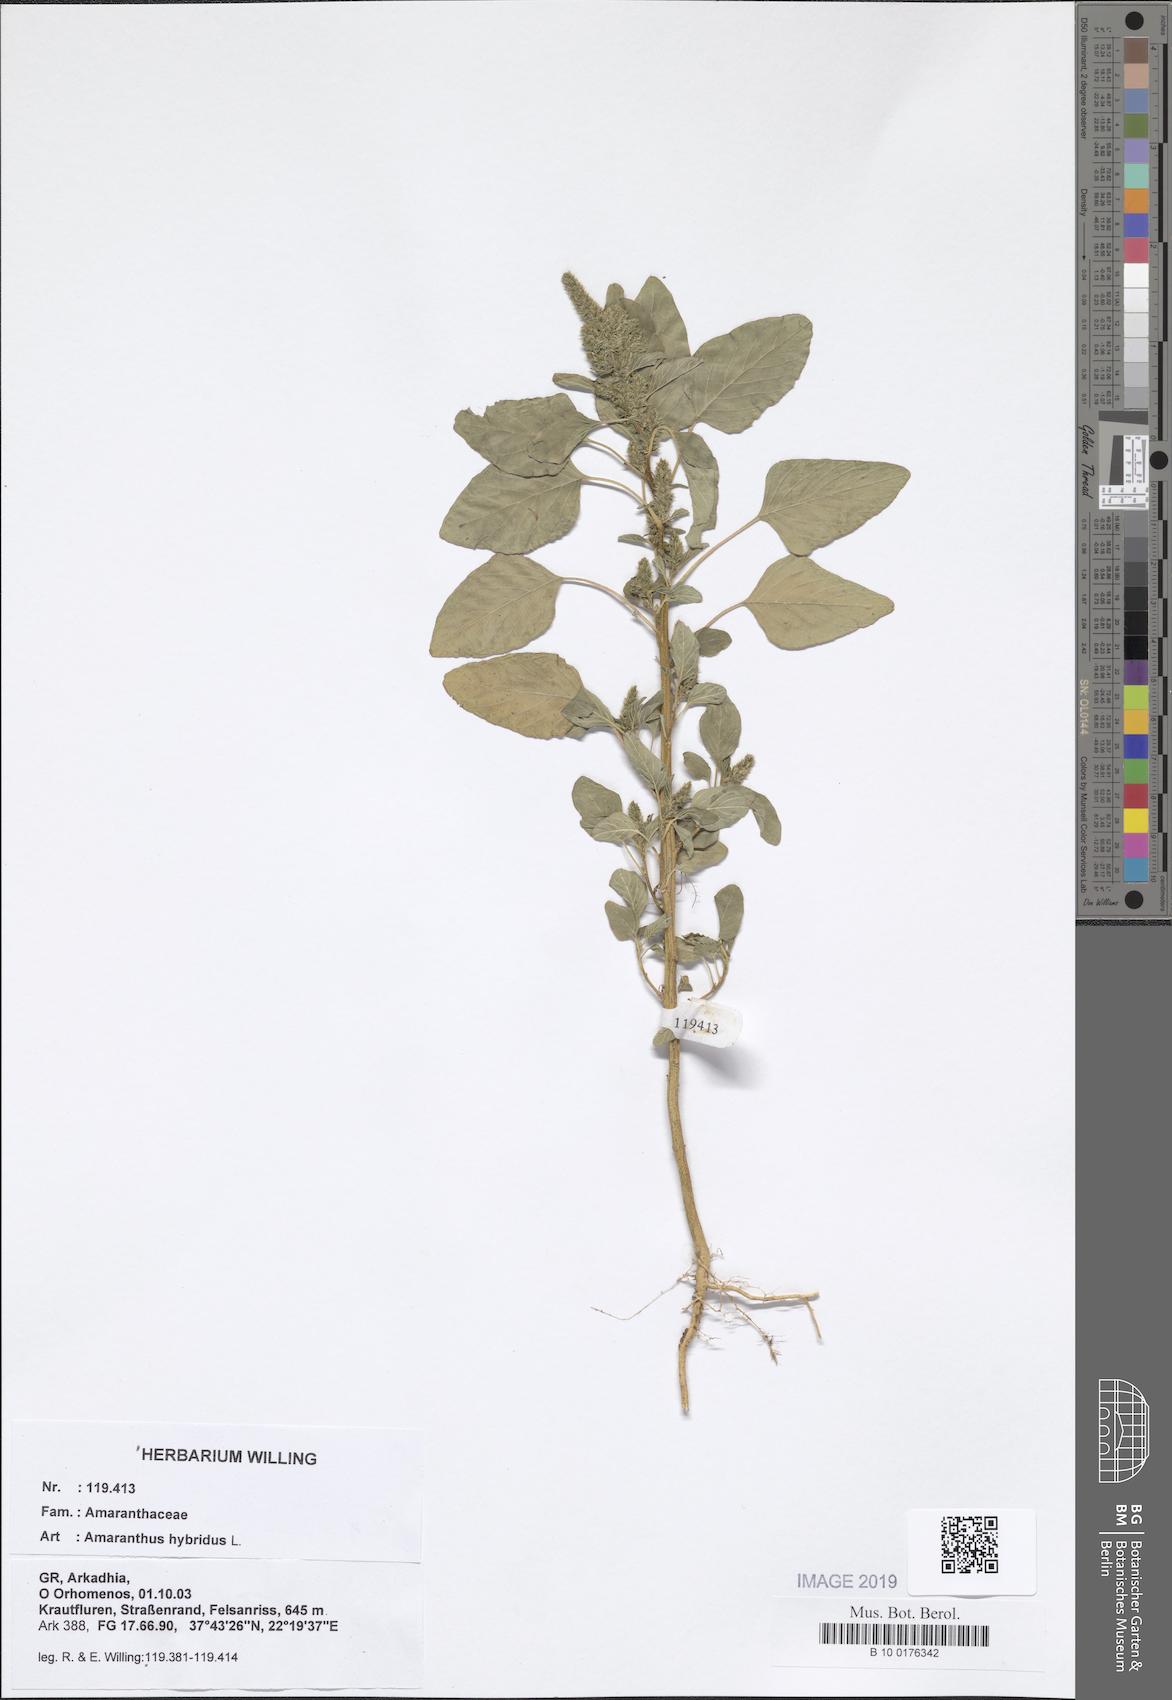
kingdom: Plantae
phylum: Tracheophyta
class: Magnoliopsida
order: Caryophyllales
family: Amaranthaceae
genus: Amaranthus
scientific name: Amaranthus hybridus
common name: Green amaranth
